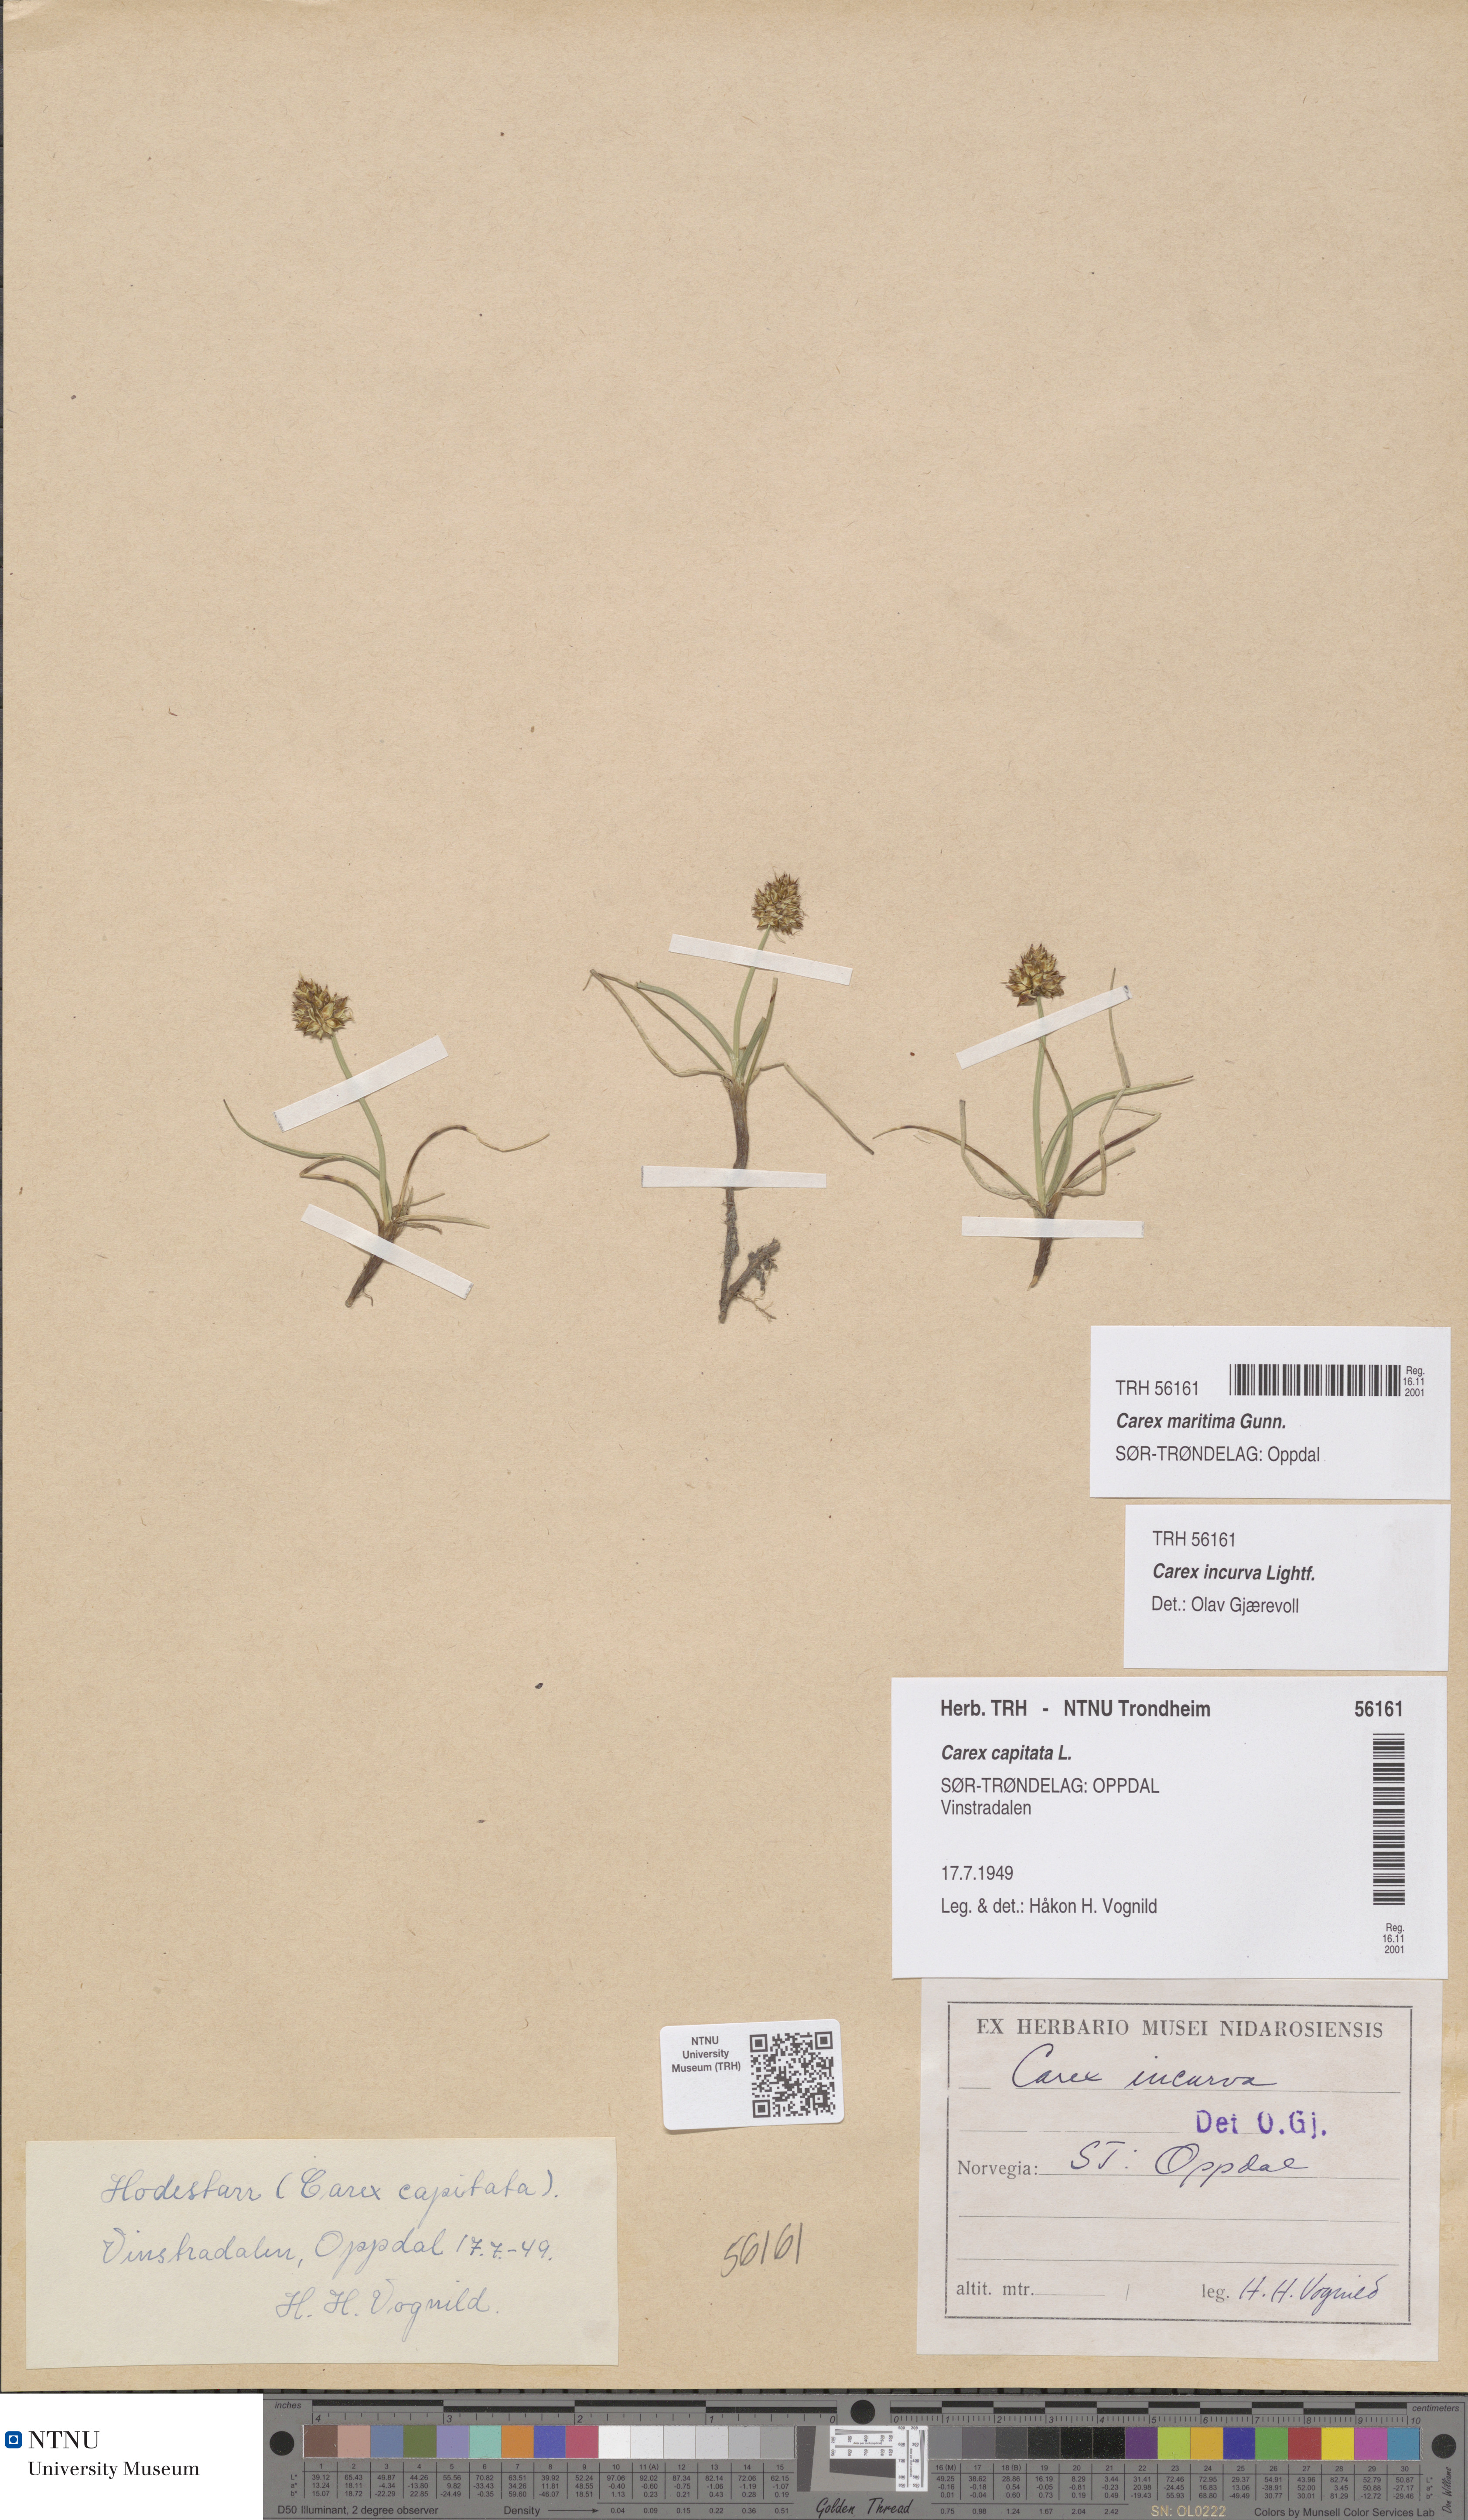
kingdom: Plantae
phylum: Tracheophyta
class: Liliopsida
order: Poales
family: Cyperaceae
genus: Carex
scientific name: Carex maritima
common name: Curved sedge
